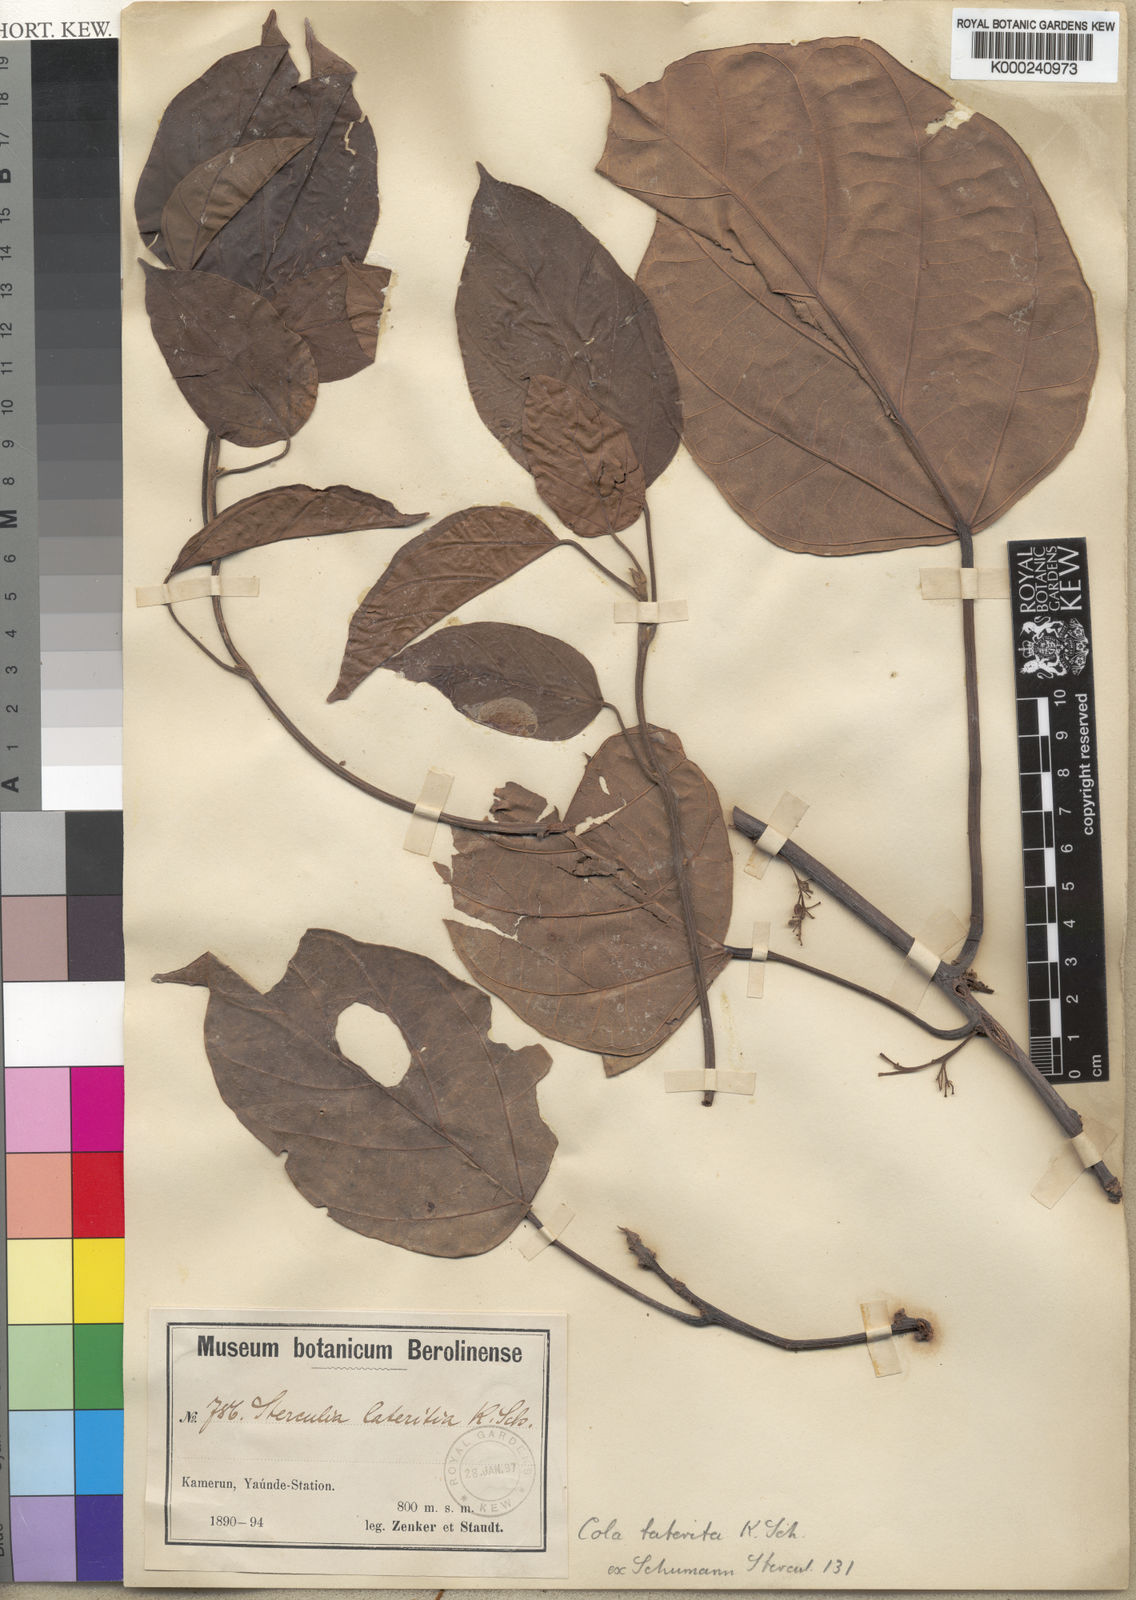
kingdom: Plantae
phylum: Tracheophyta
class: Magnoliopsida
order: Malvales
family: Malvaceae
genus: Cola
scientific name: Cola lateritia
